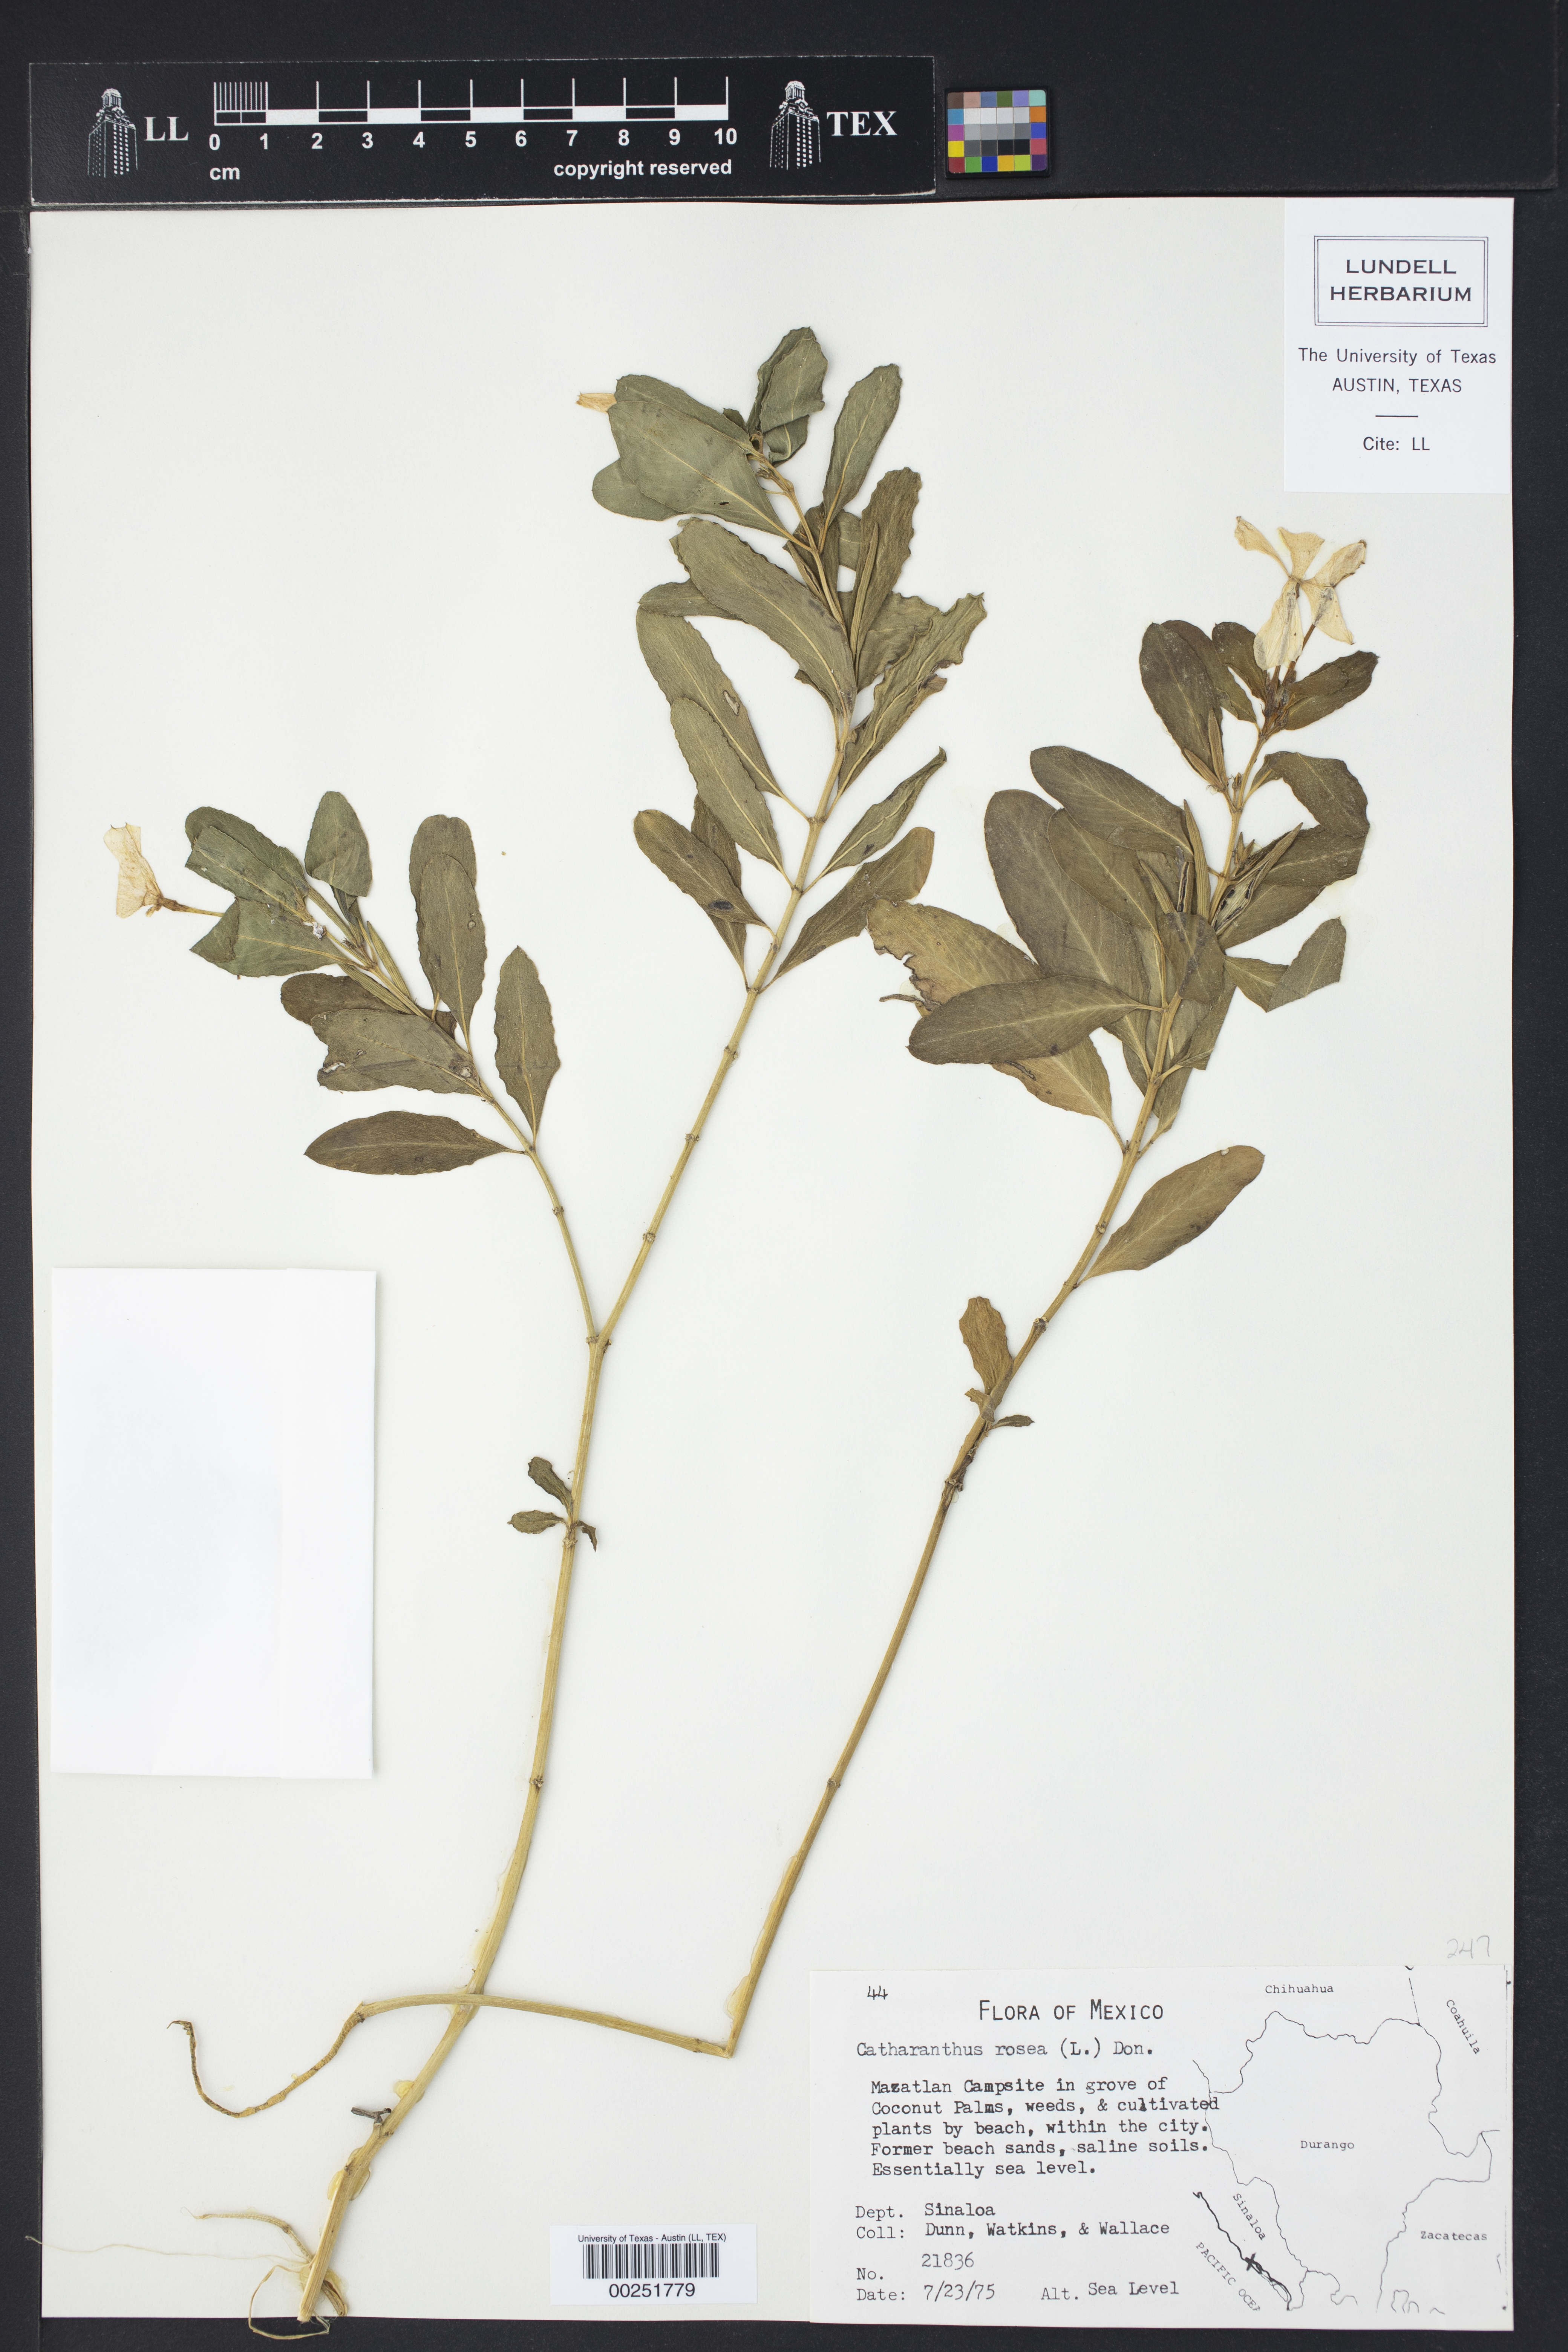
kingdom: Plantae
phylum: Tracheophyta
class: Magnoliopsida
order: Gentianales
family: Apocynaceae
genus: Catharanthus
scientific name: Catharanthus roseus
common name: Madagascar periwinkle
